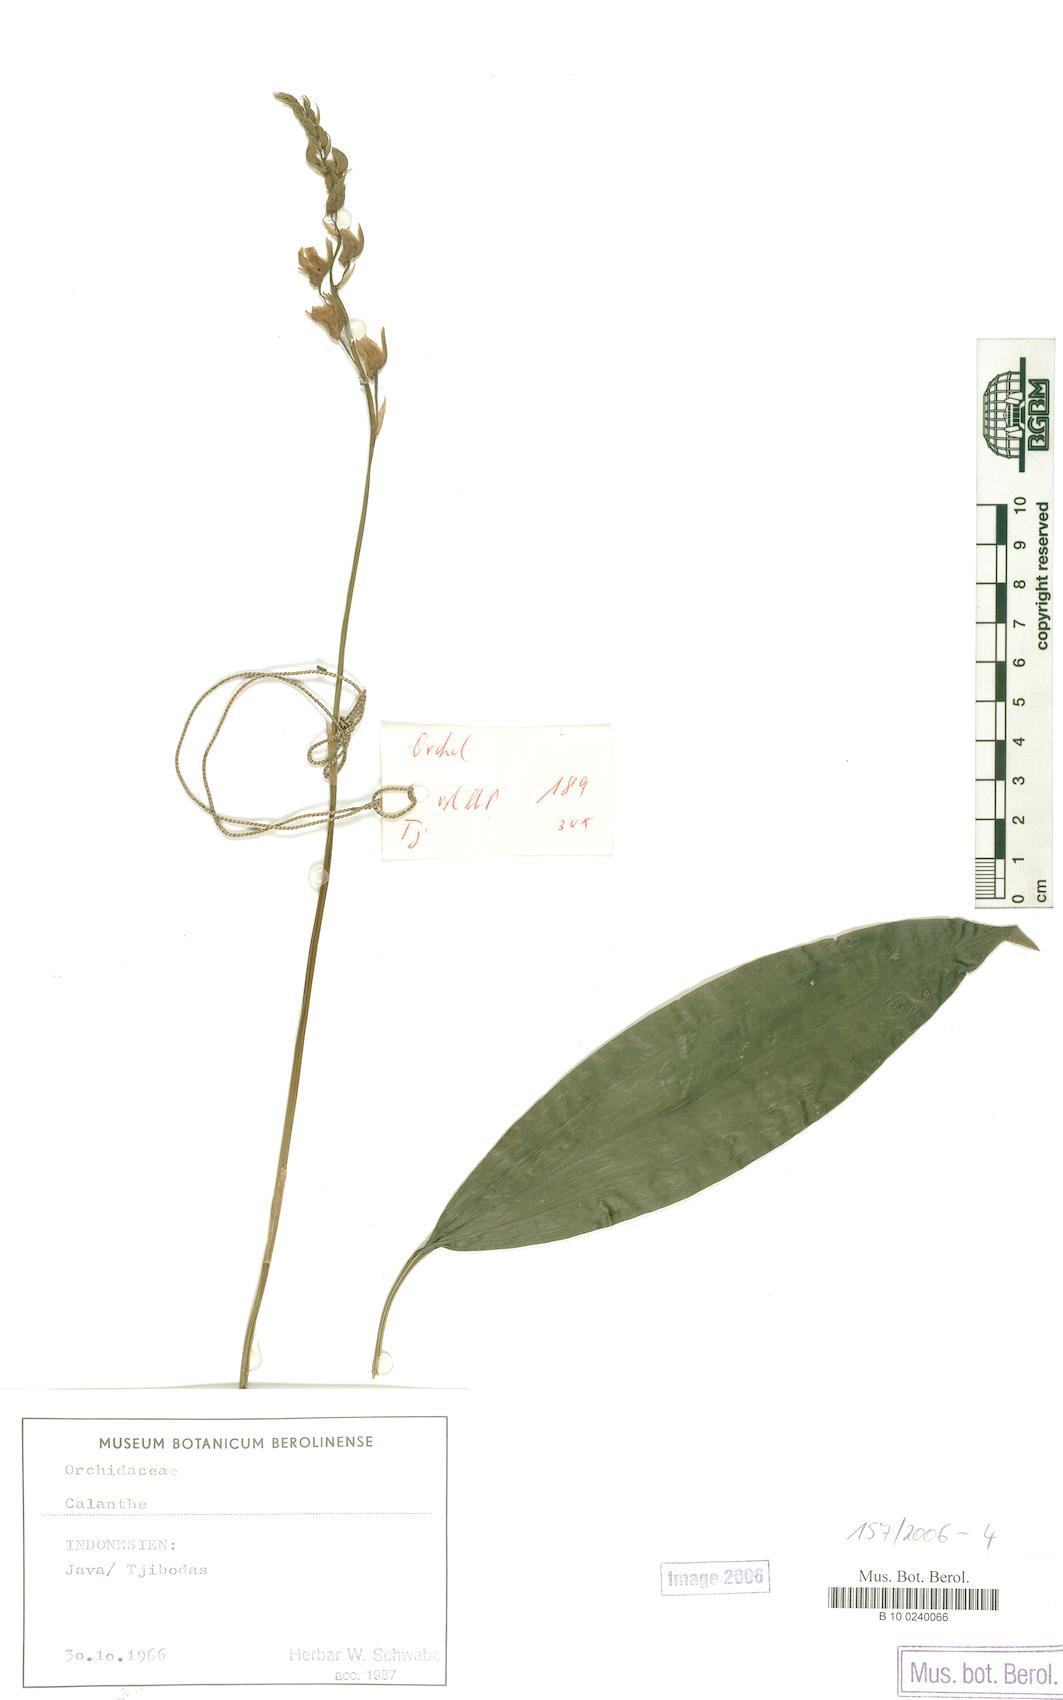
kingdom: Plantae
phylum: Tracheophyta
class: Liliopsida
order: Asparagales
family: Orchidaceae
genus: Calanthe
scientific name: Calanthe
